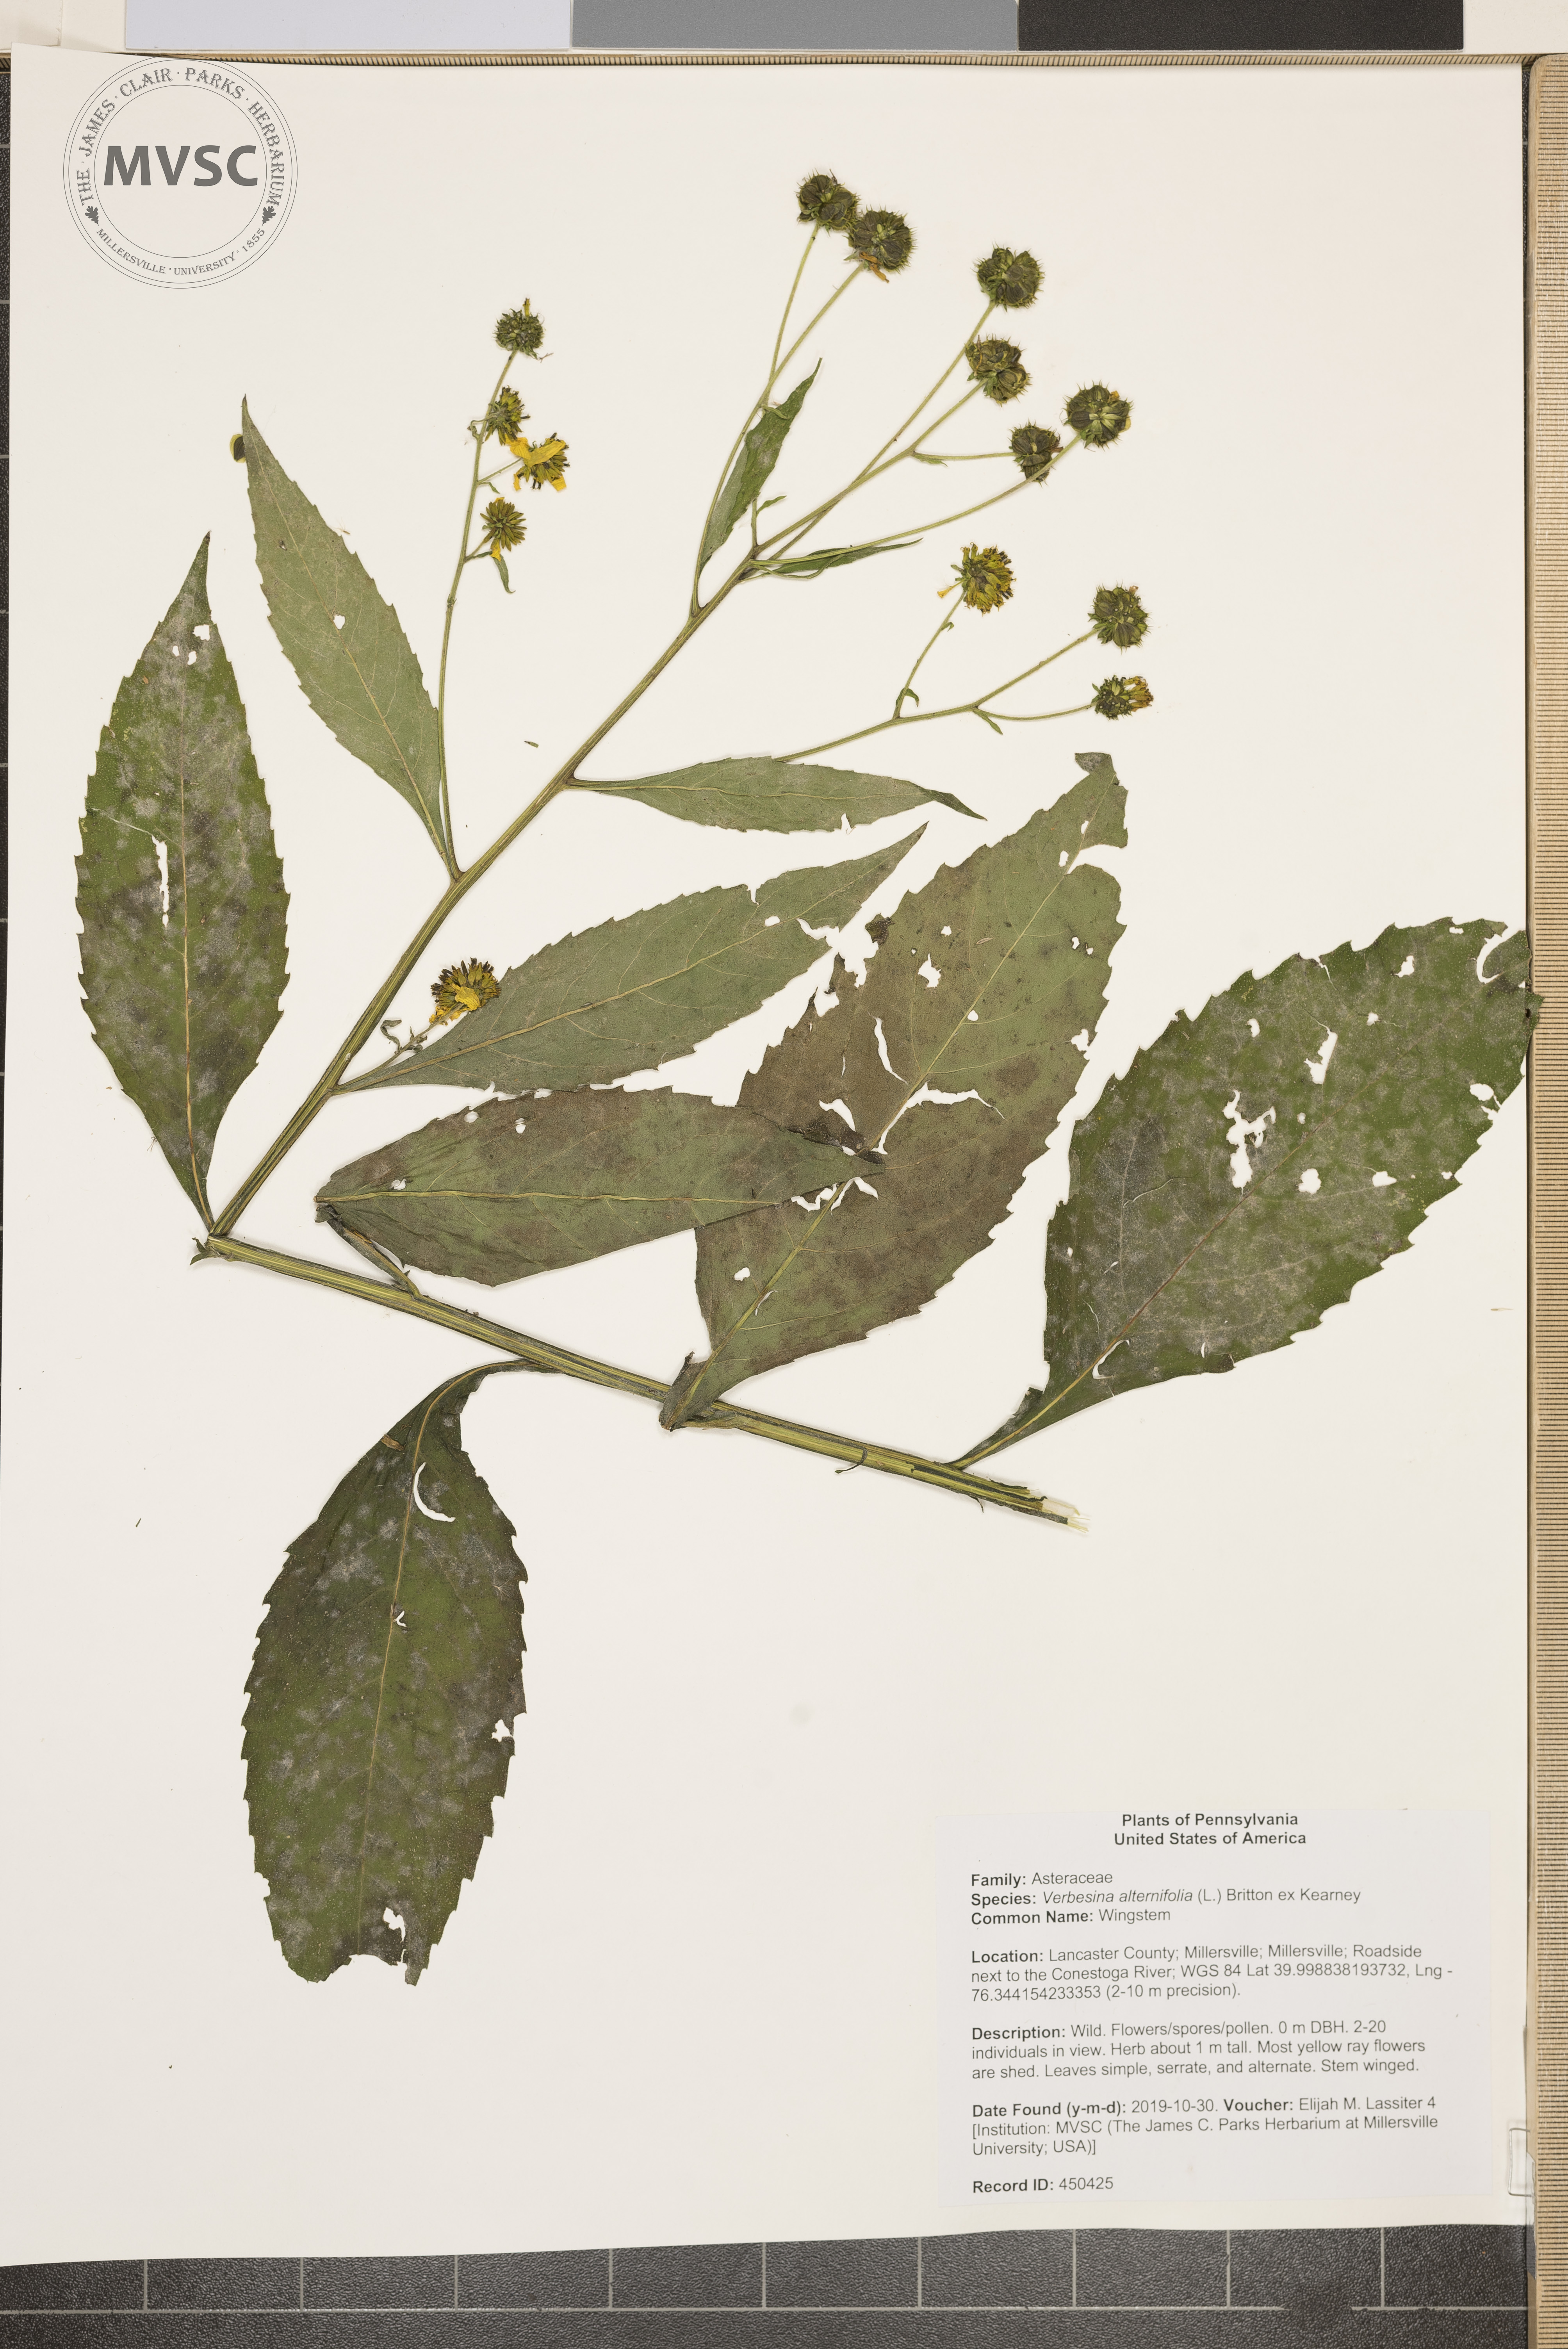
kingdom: Plantae
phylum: Tracheophyta
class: Magnoliopsida
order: Asterales
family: Asteraceae
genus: Verbesina
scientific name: Verbesina alternifolia
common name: Wingstem
